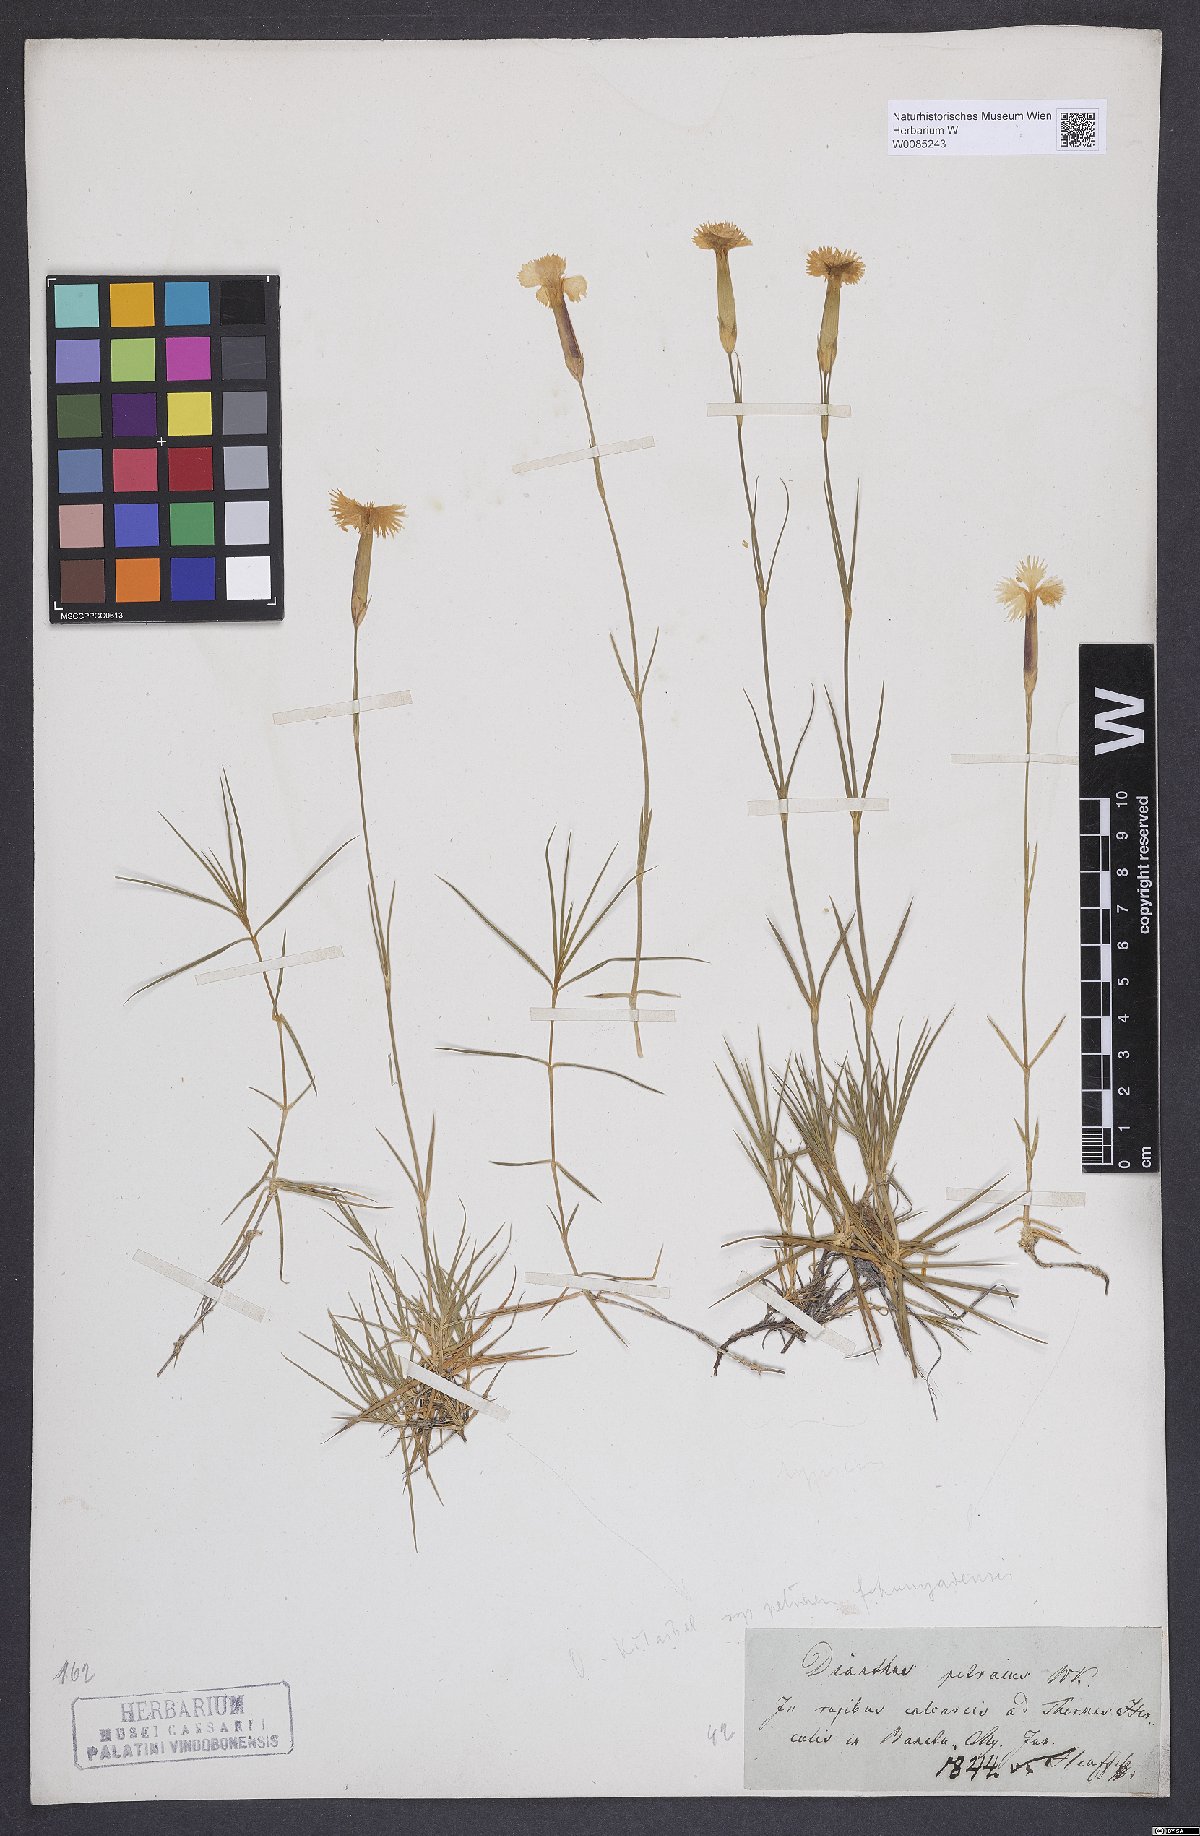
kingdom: Plantae
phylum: Tracheophyta
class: Magnoliopsida
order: Caryophyllales
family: Caryophyllaceae
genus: Dianthus
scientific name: Dianthus petraeus
